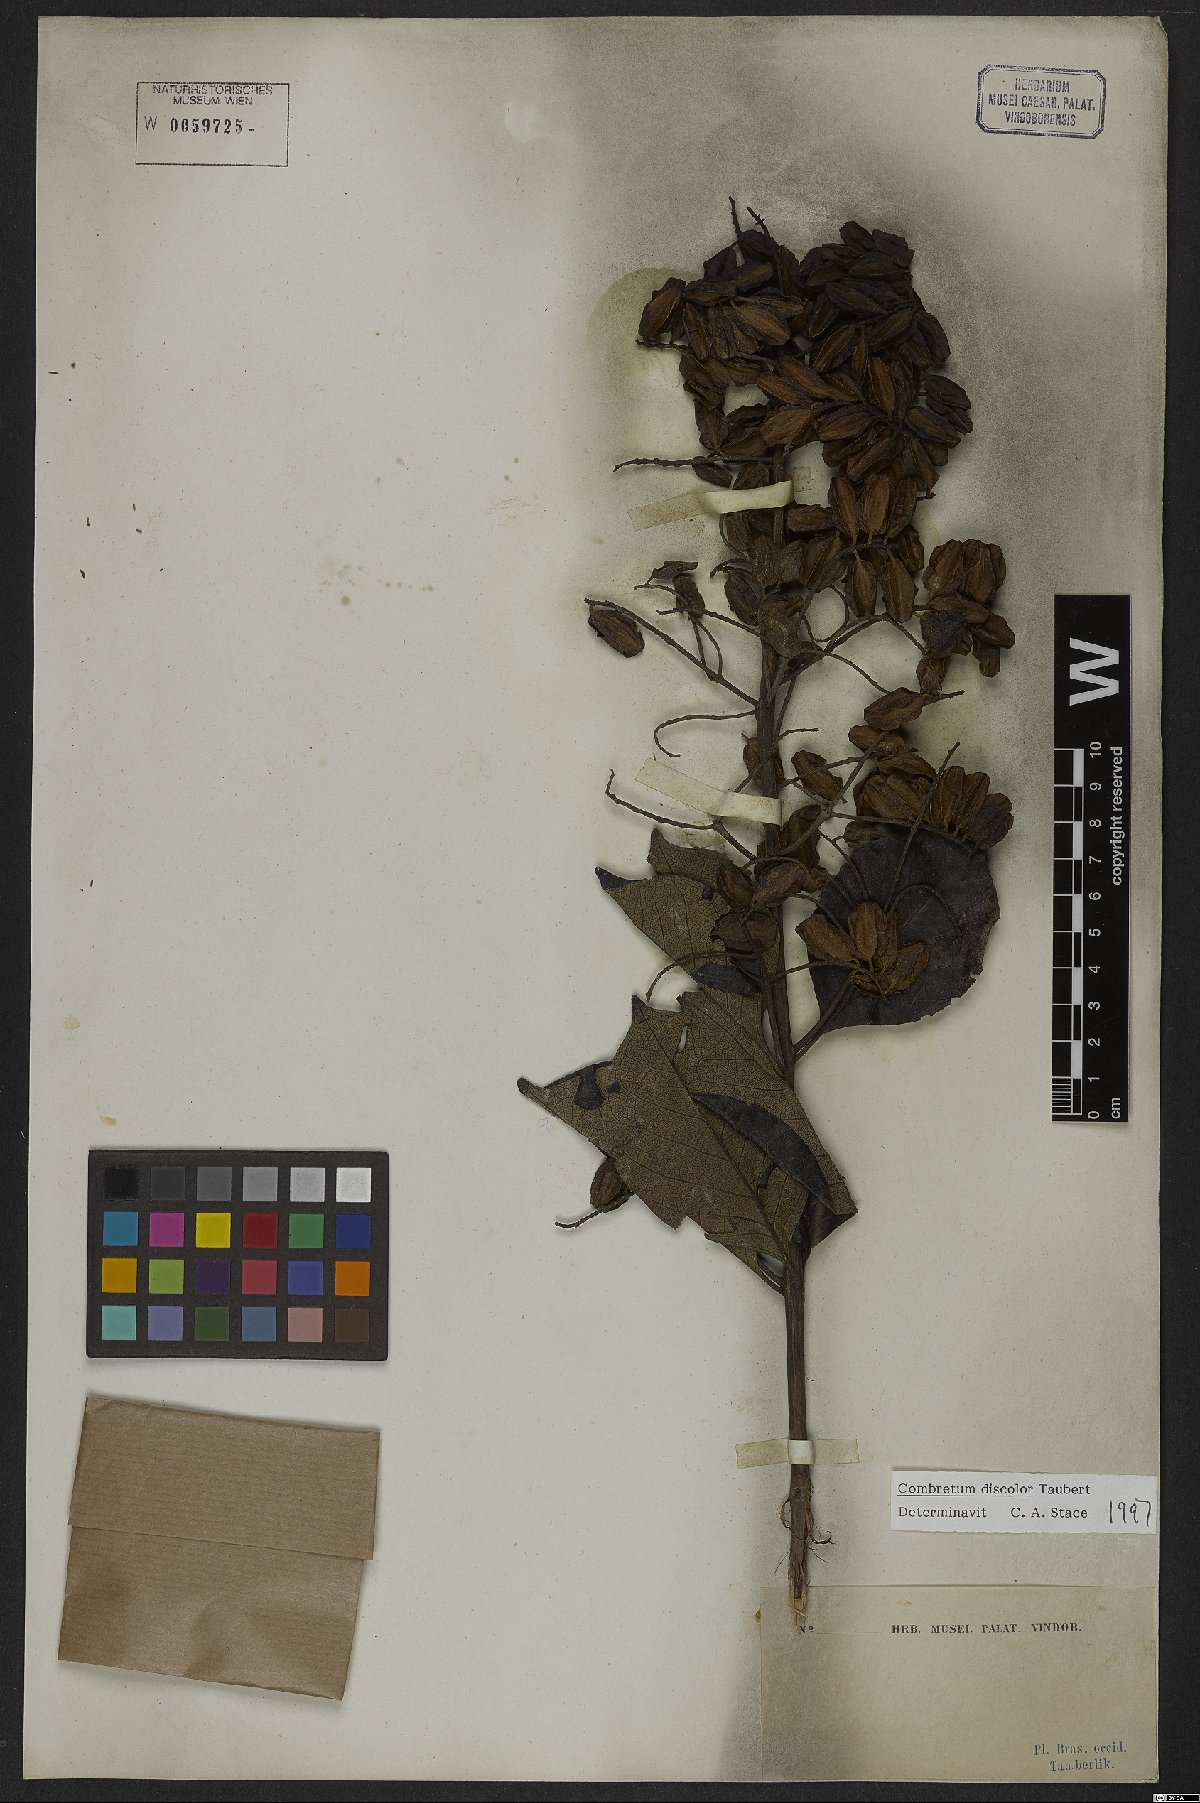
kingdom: Plantae
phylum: Tracheophyta
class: Magnoliopsida
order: Myrtales
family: Combretaceae
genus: Combretum
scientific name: Combretum discolor
